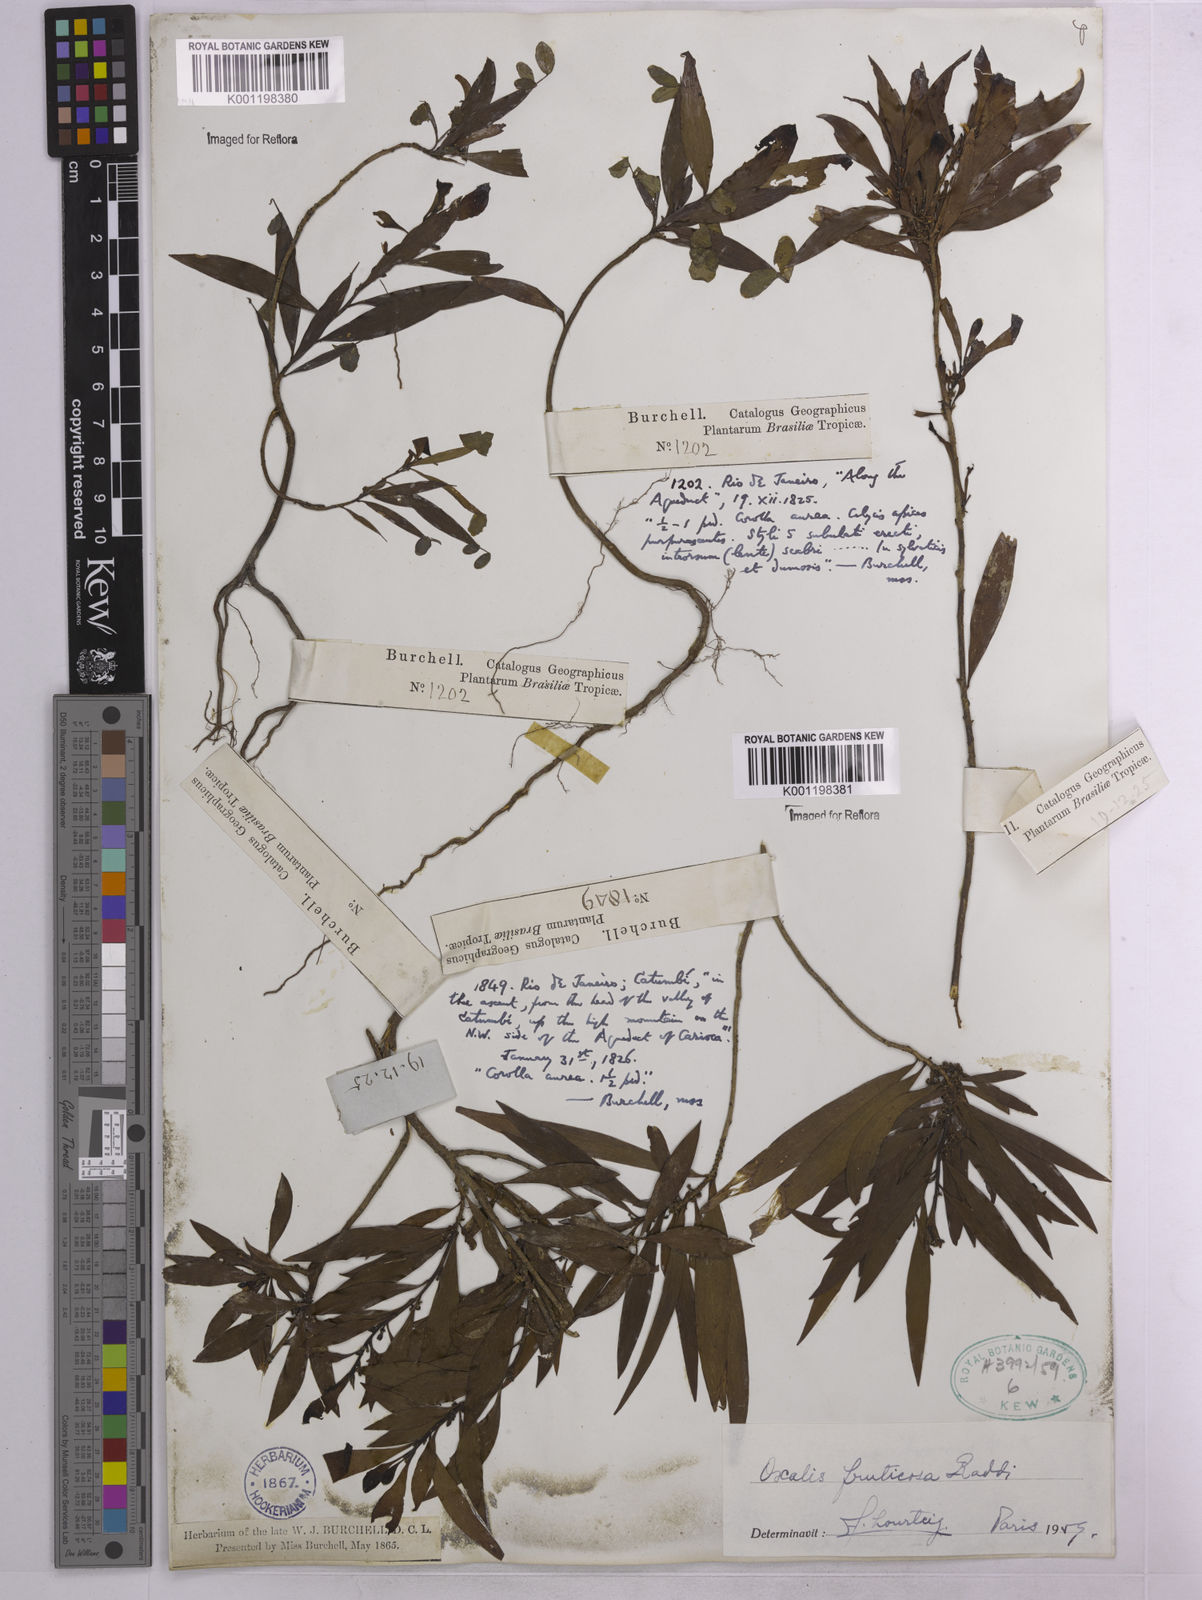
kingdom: Plantae
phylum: Tracheophyta
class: Magnoliopsida
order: Oxalidales
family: Oxalidaceae
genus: Oxalis
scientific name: Oxalis fruticosa
